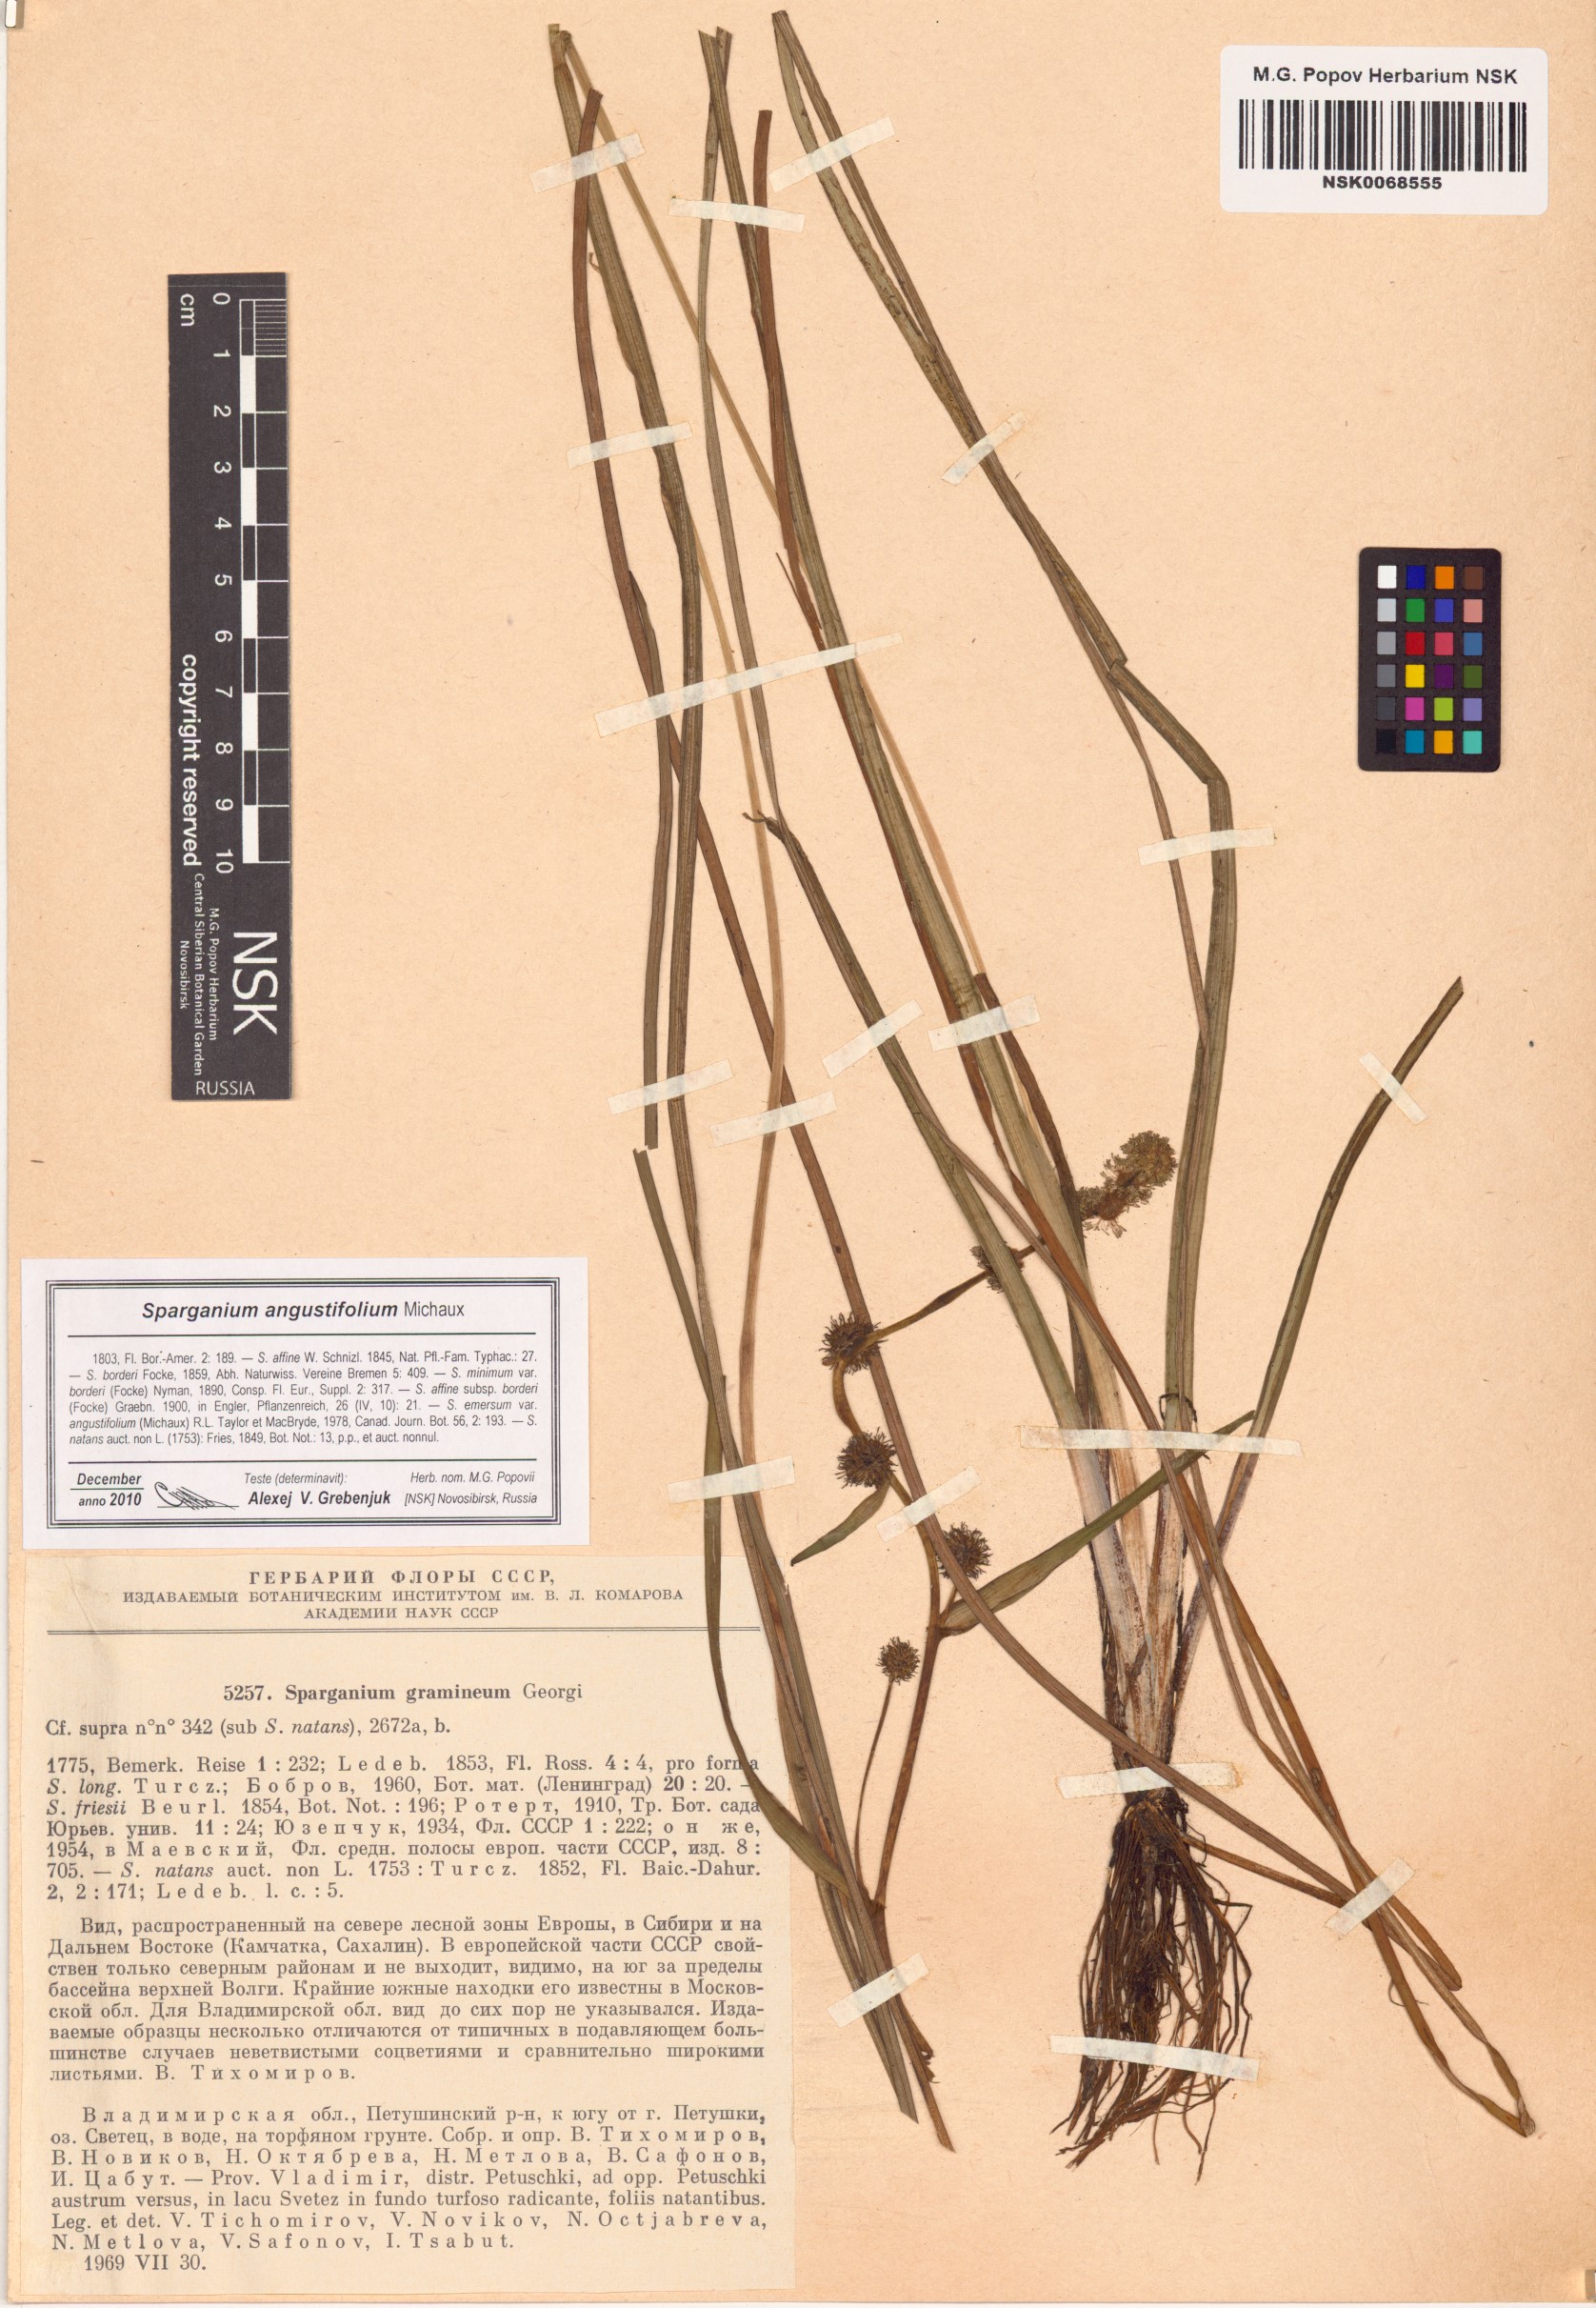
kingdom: Plantae
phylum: Tracheophyta
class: Liliopsida
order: Poales
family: Typhaceae
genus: Sparganium
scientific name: Sparganium angustifolium
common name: Floating bur-reed
